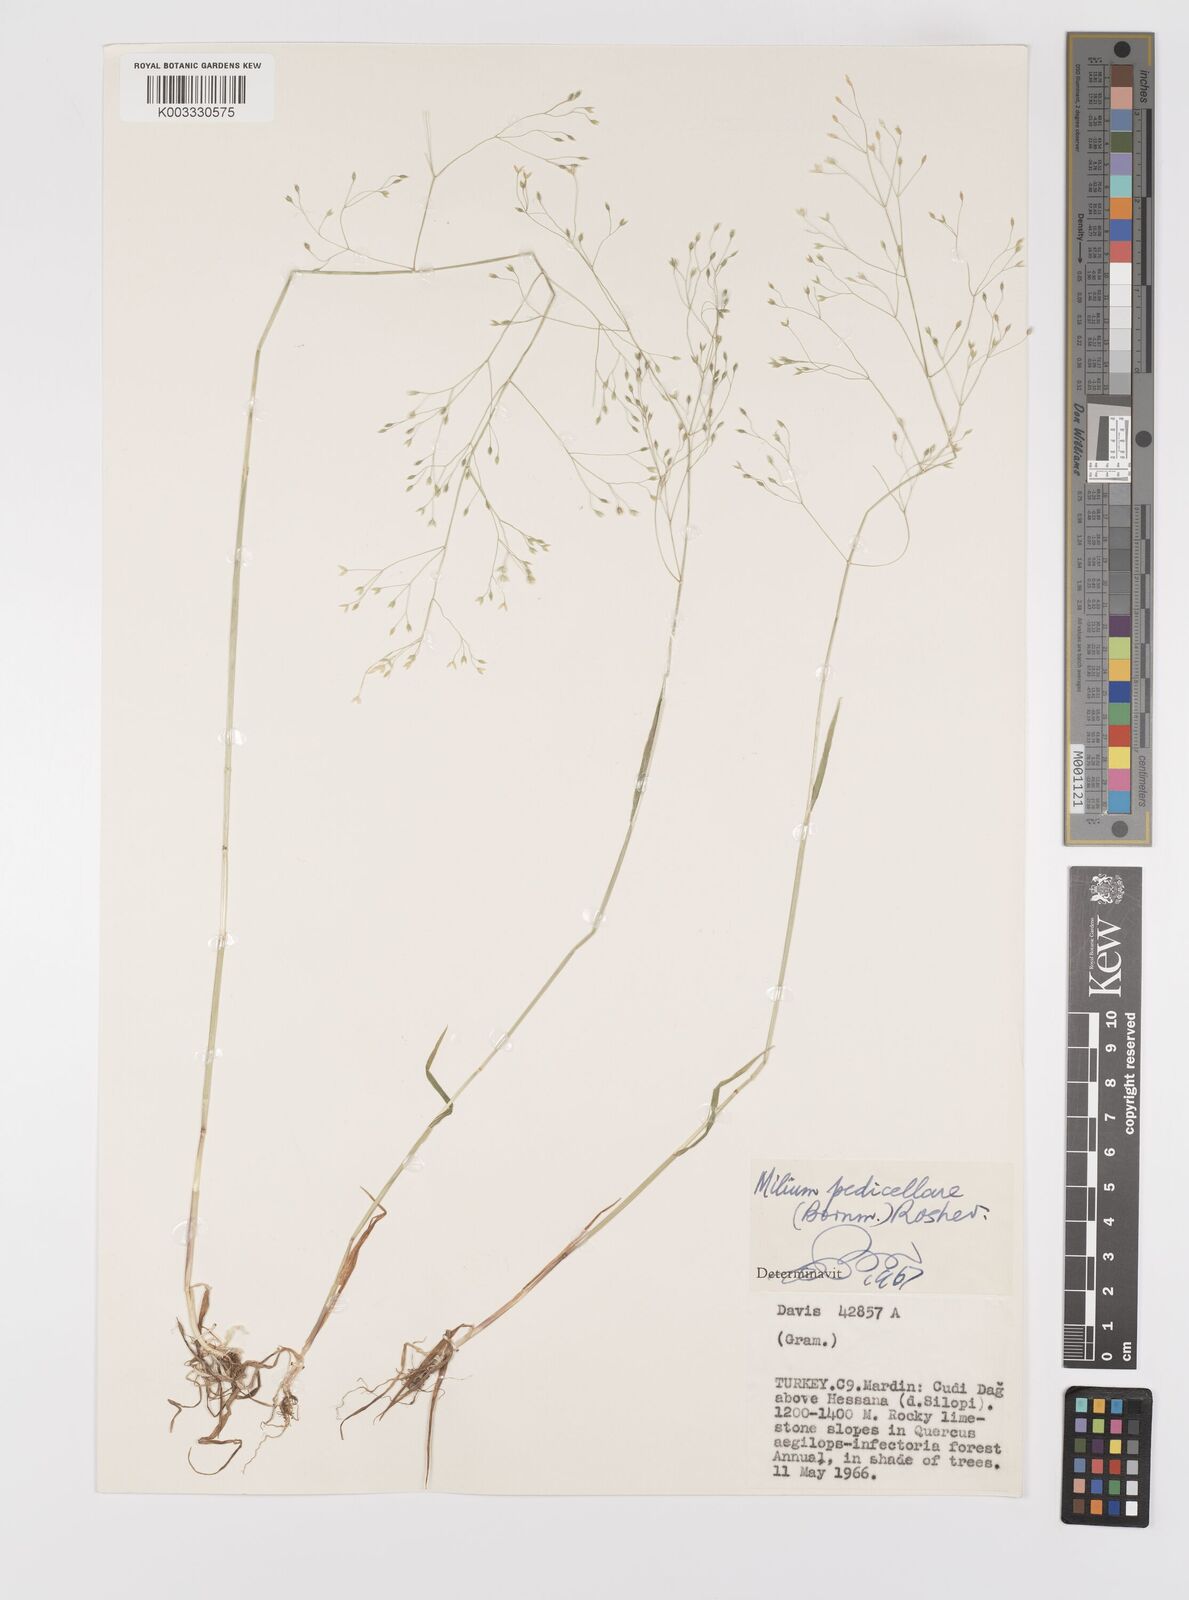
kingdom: Plantae
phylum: Tracheophyta
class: Liliopsida
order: Poales
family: Poaceae
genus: Milium
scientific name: Milium pedicellare
